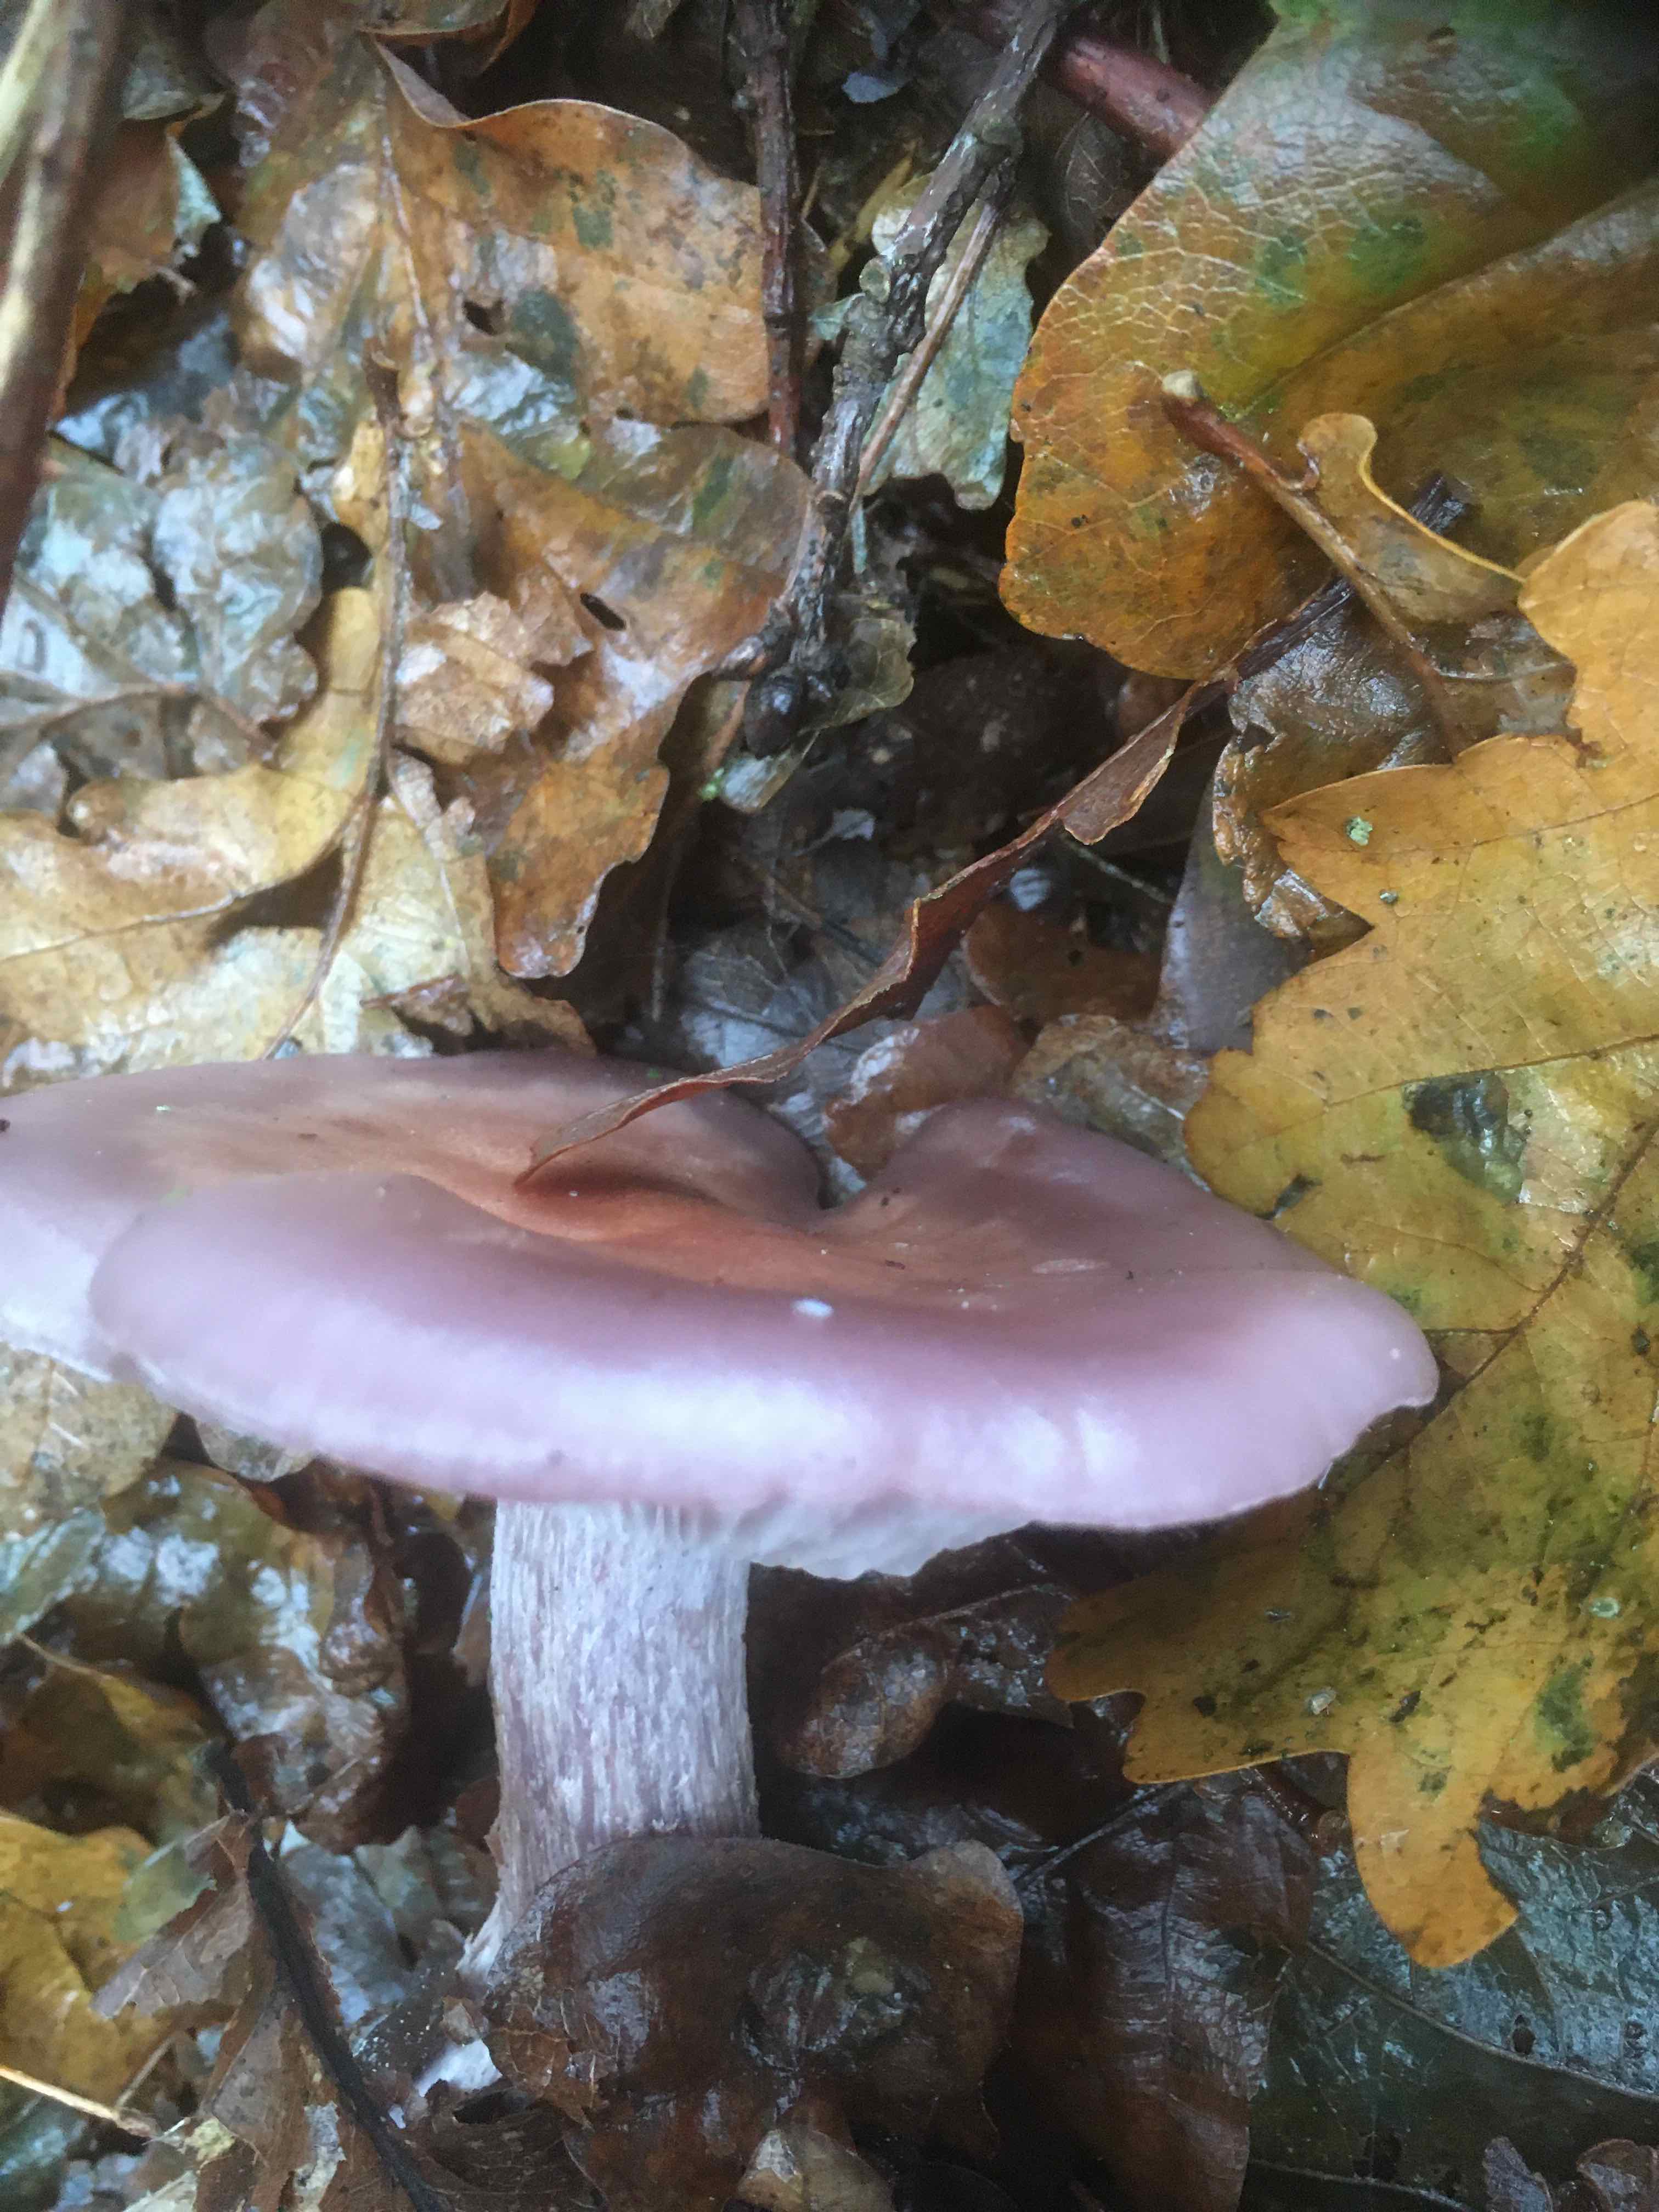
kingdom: Fungi
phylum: Basidiomycota
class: Agaricomycetes
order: Agaricales
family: Tricholomataceae
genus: Lepista
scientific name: Lepista
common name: hekseringshat
